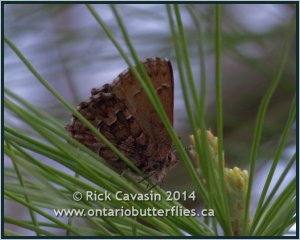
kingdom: Animalia
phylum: Arthropoda
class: Insecta
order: Lepidoptera
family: Lycaenidae
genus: Incisalia
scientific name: Incisalia niphon
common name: Eastern Pine Elfin
